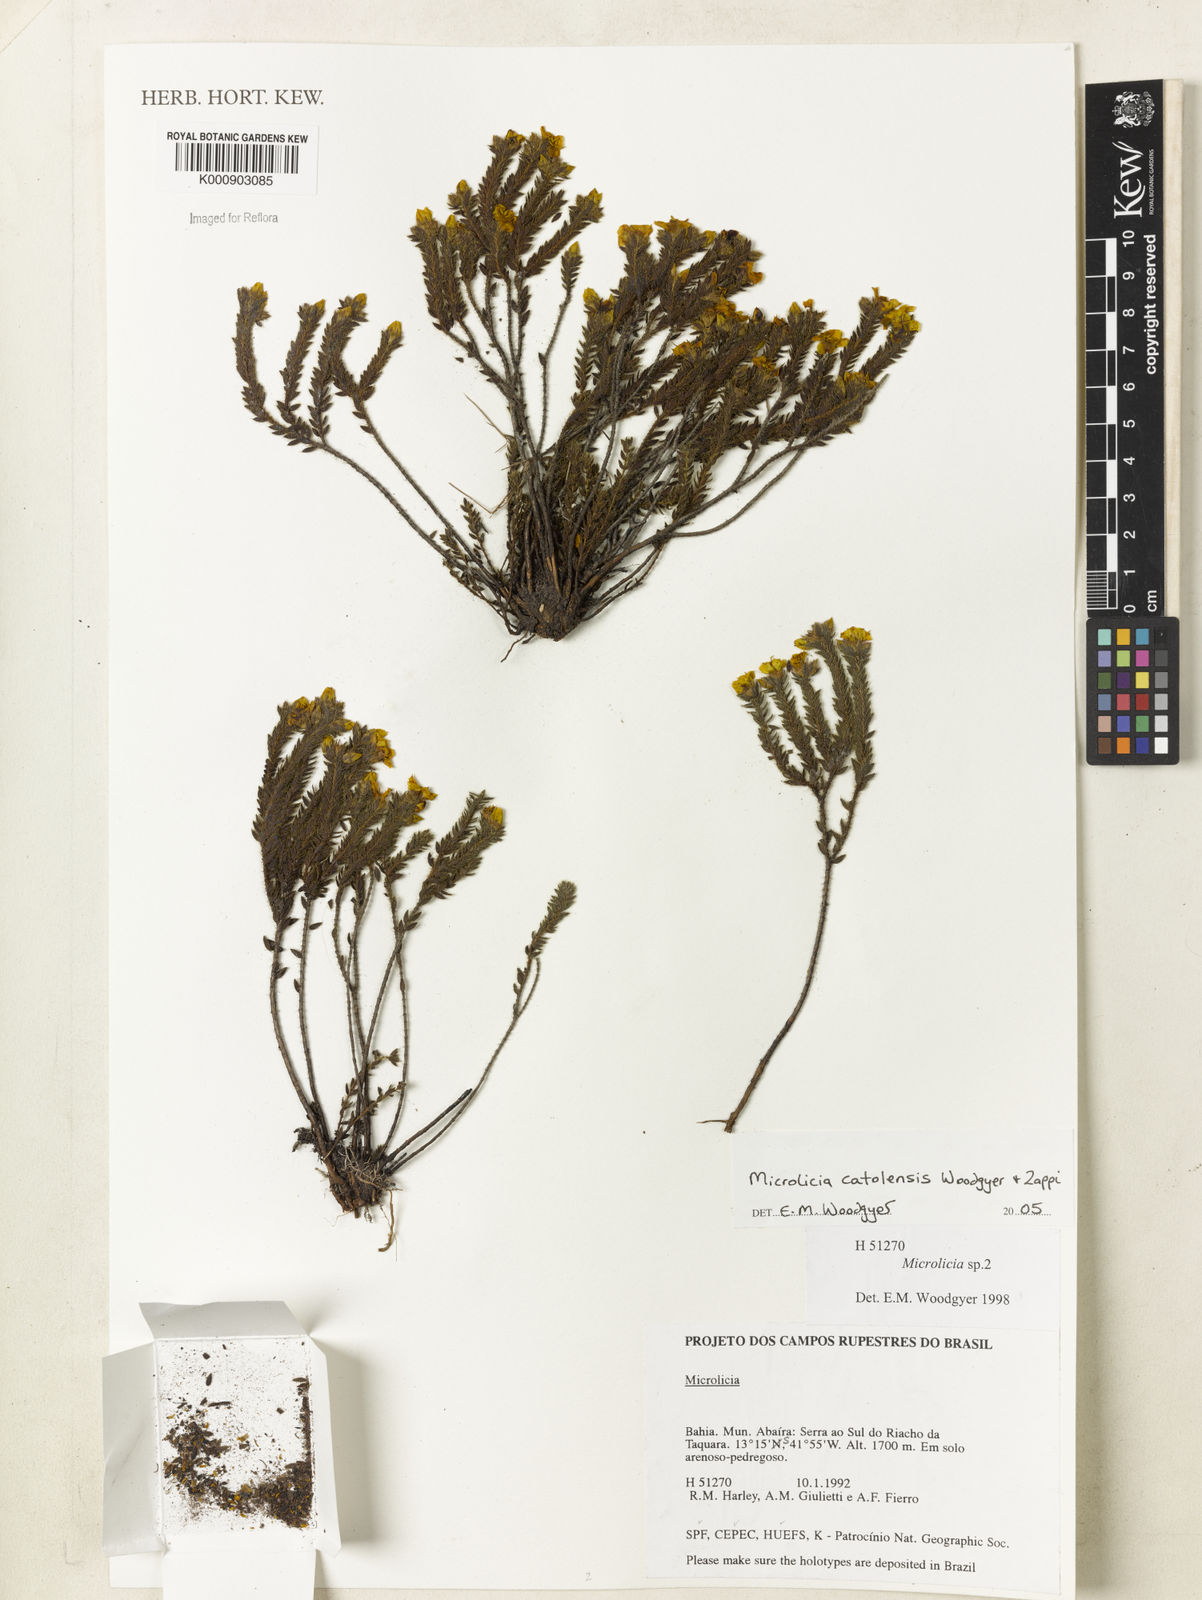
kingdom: Plantae
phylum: Tracheophyta
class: Magnoliopsida
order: Myrtales
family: Melastomataceae
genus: Microlicia
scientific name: Microlicia catolensis
